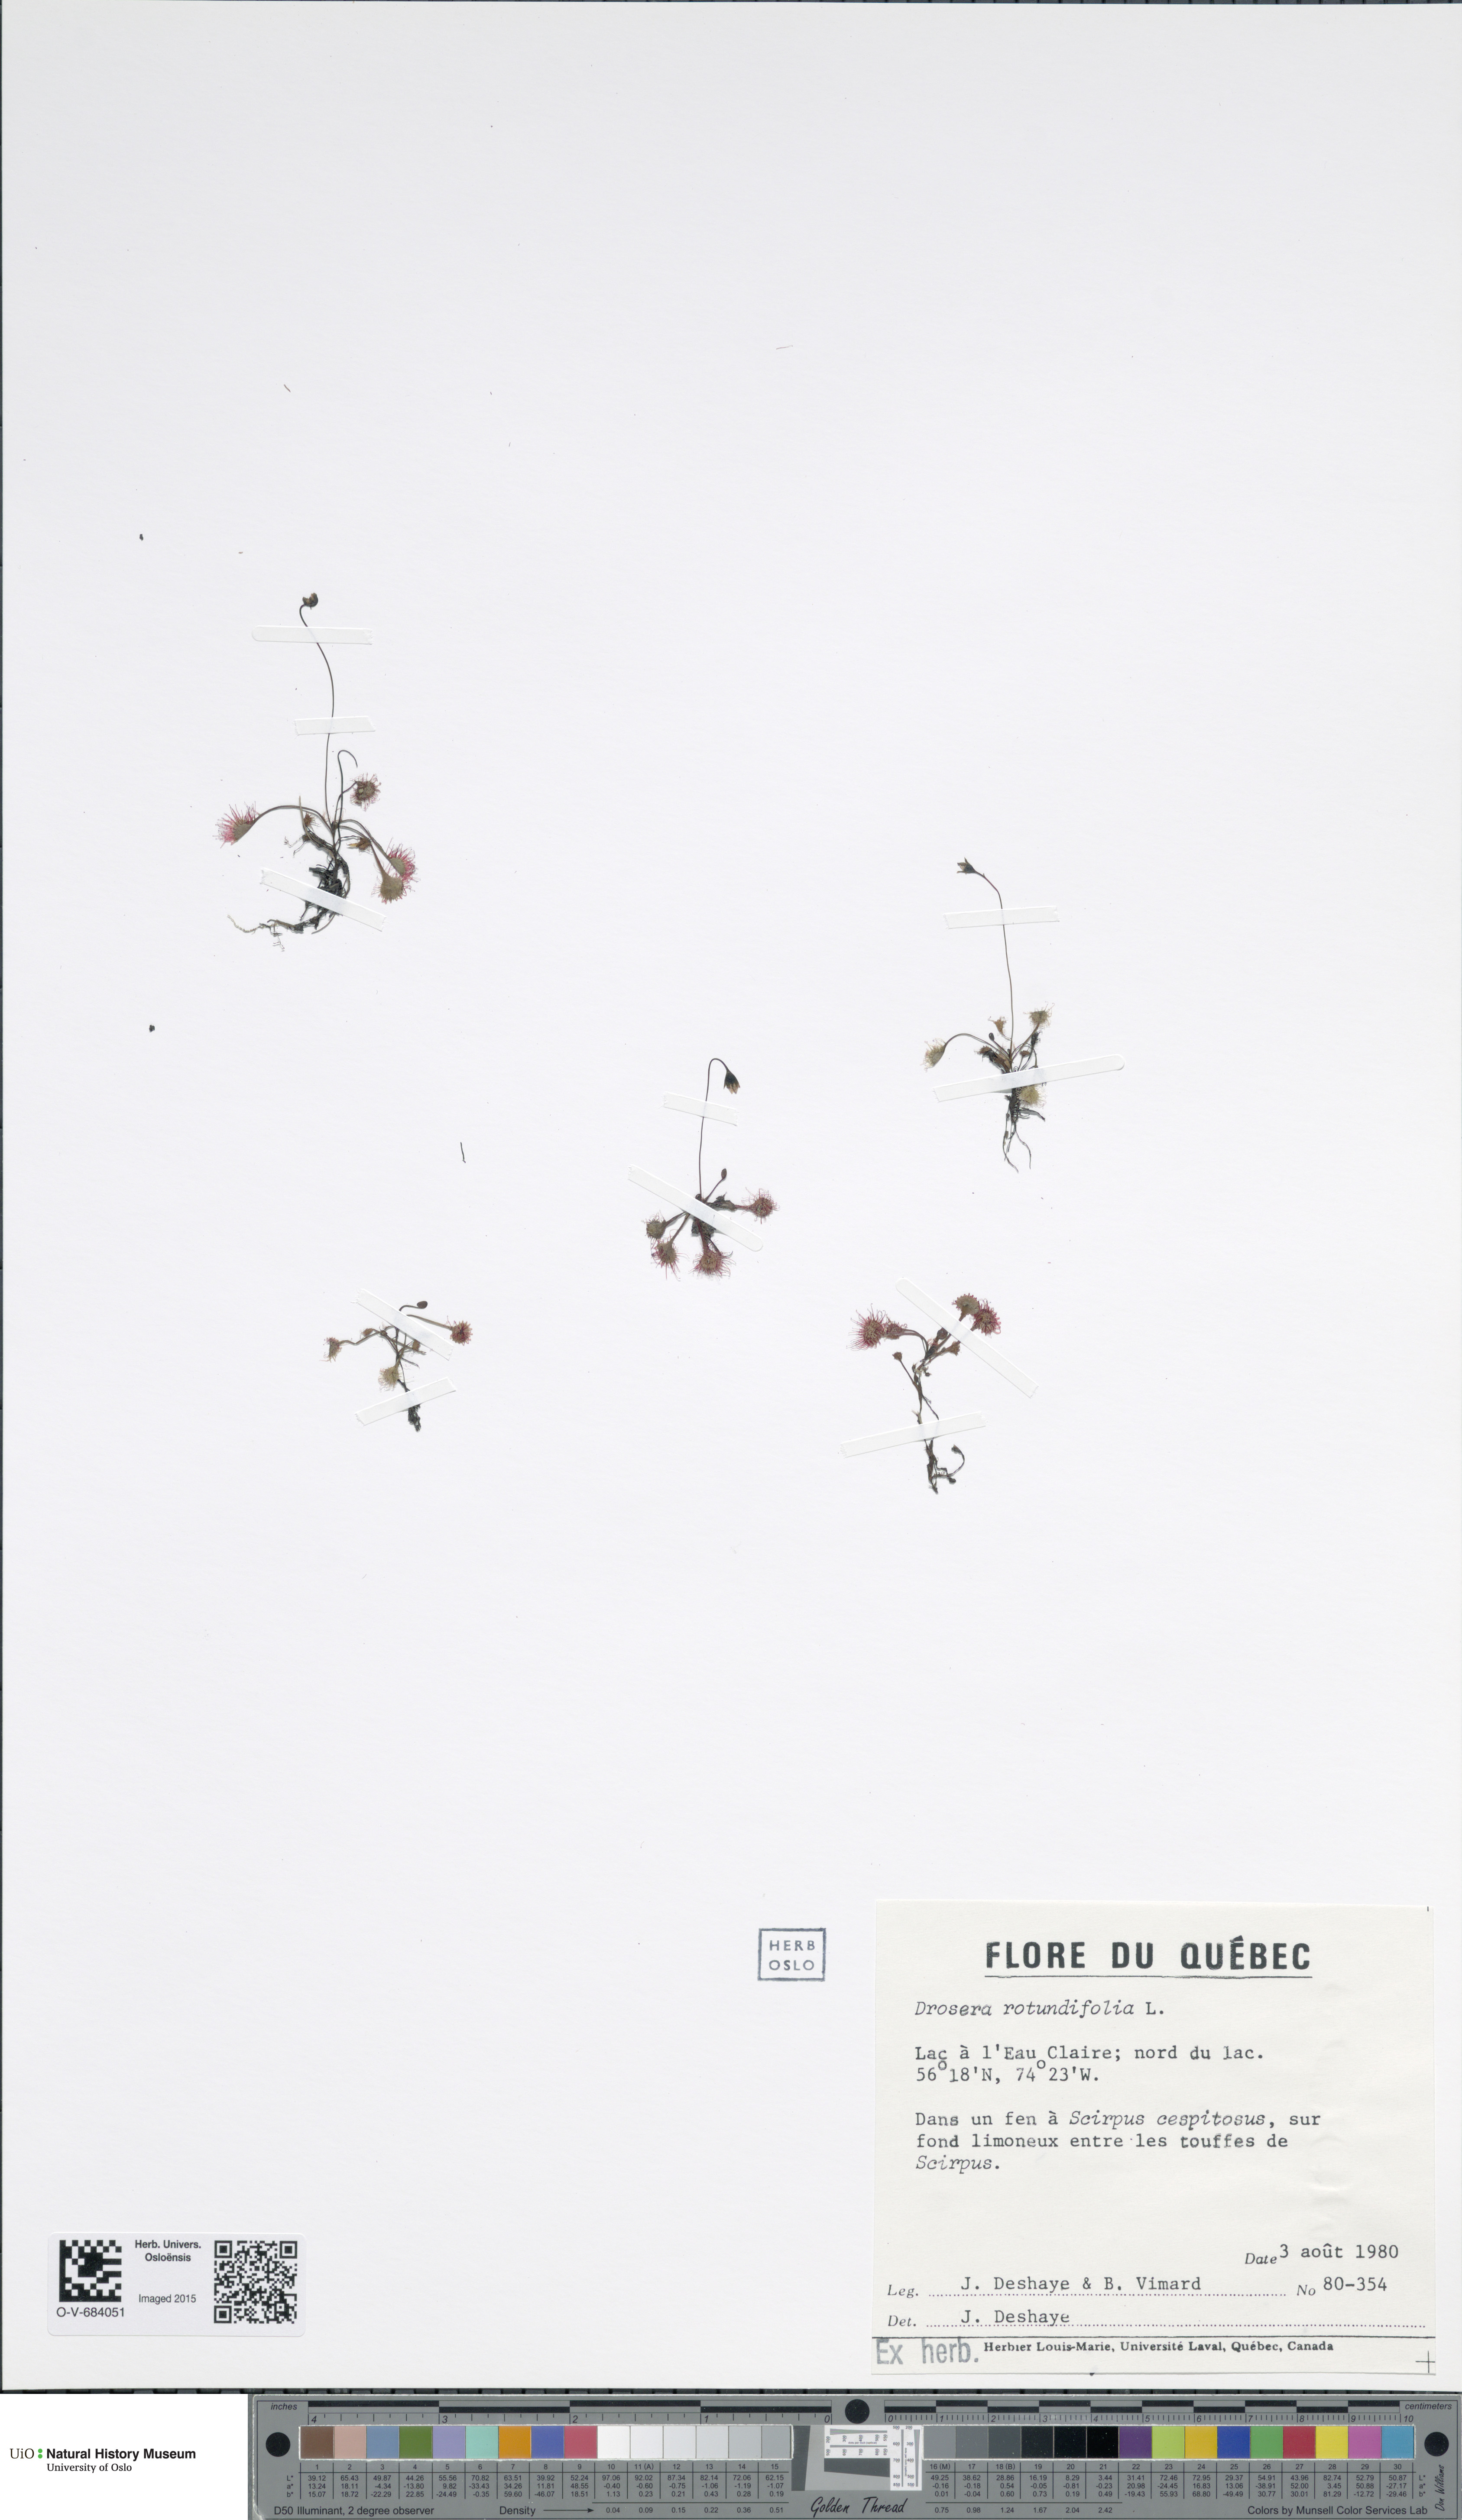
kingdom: Plantae
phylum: Tracheophyta
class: Magnoliopsida
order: Caryophyllales
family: Droseraceae
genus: Drosera
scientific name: Drosera rotundifolia
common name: Round-leaved sundew
